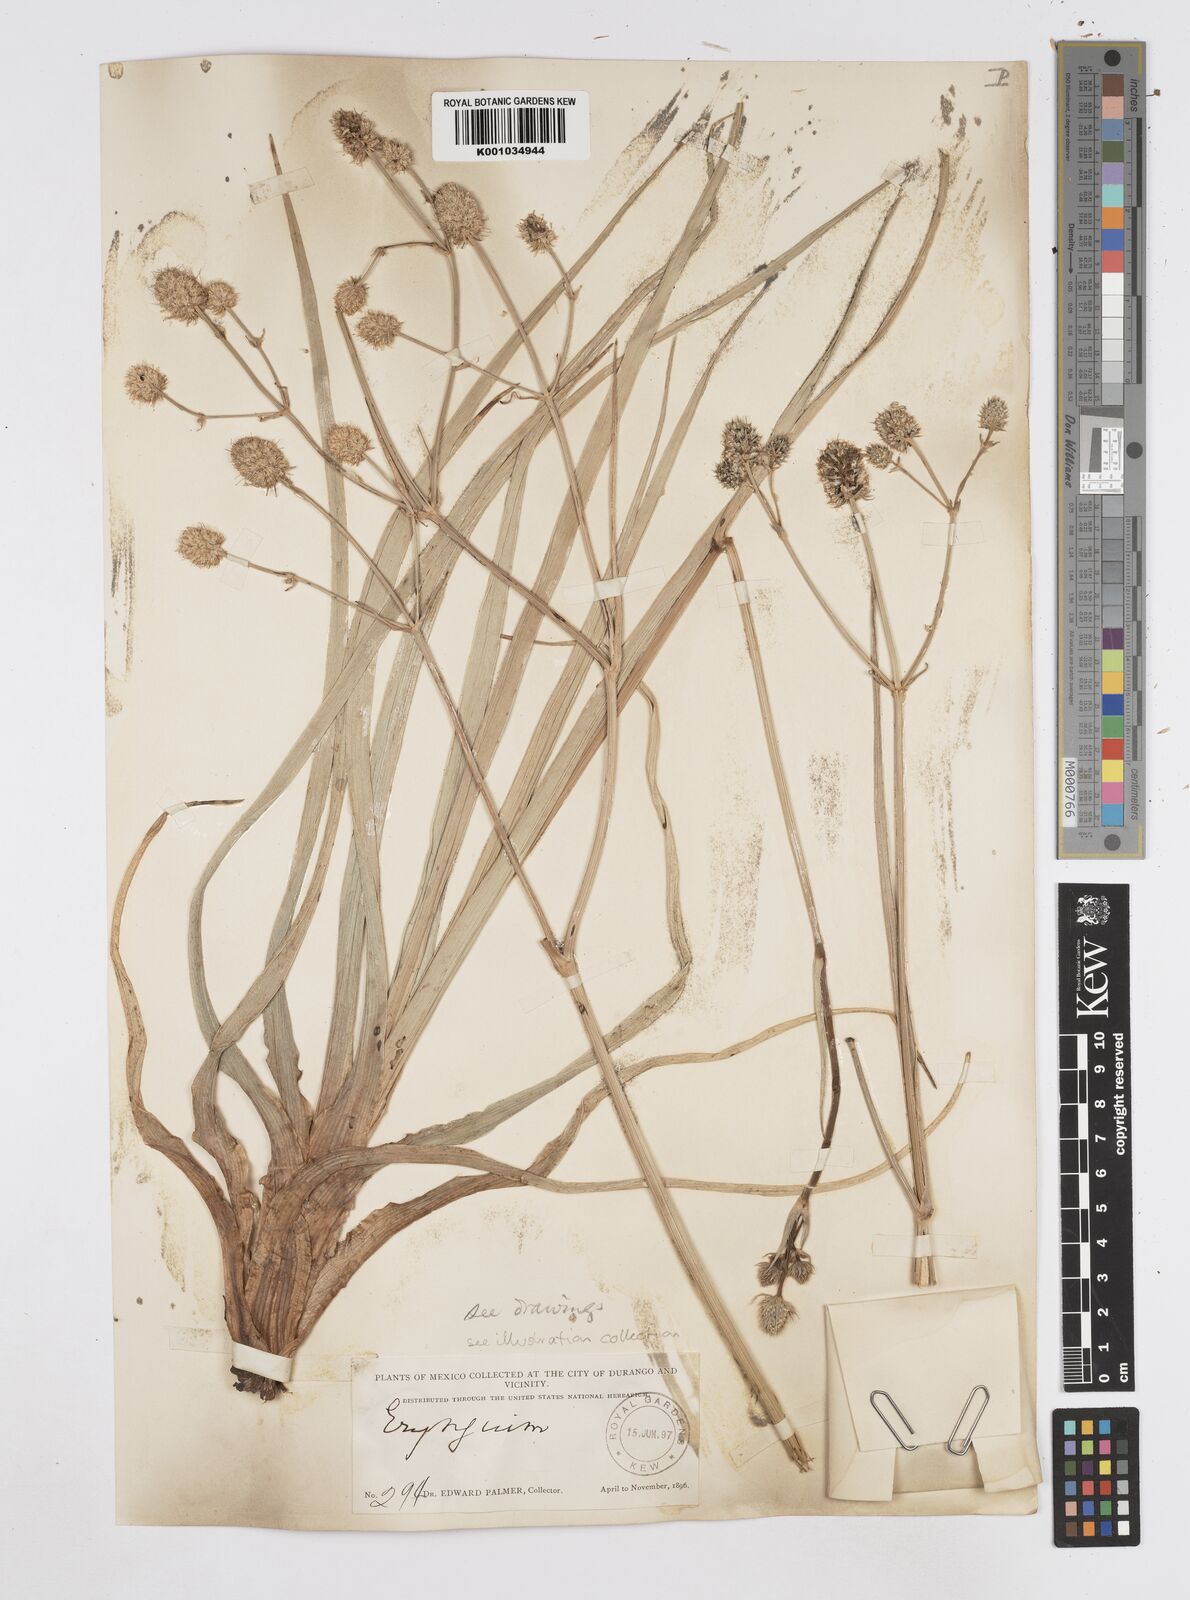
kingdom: Plantae
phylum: Tracheophyta
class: Magnoliopsida
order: Apiales
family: Apiaceae
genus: Eryngium
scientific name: Eryngium sparganophyllum
